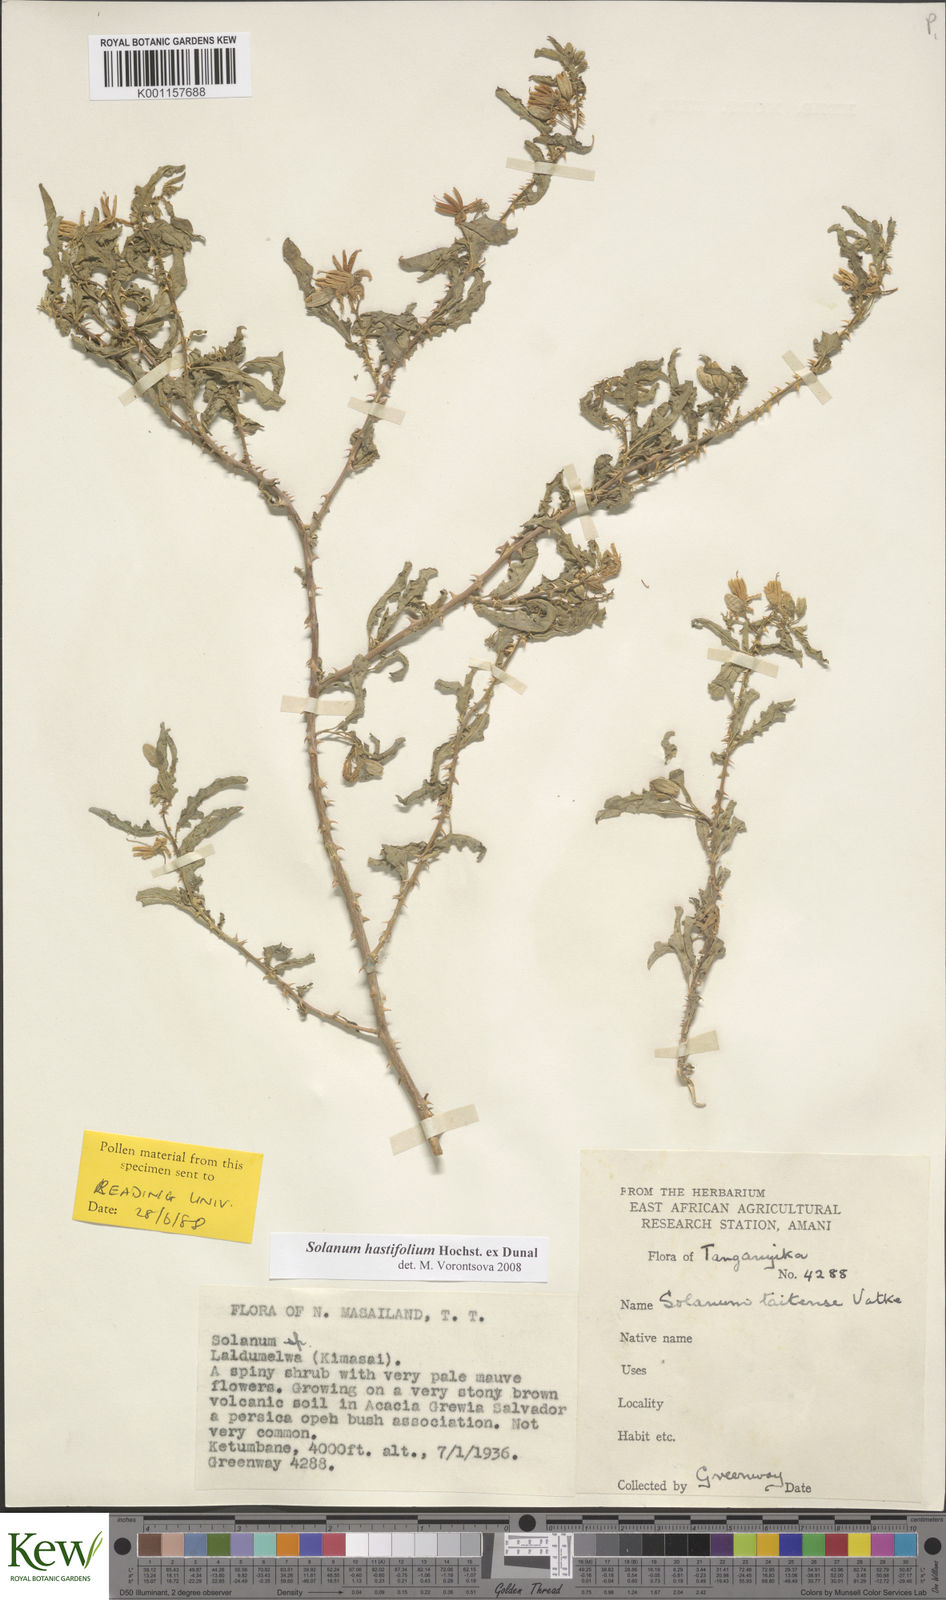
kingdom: Plantae
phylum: Tracheophyta
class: Magnoliopsida
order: Solanales
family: Solanaceae
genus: Solanum
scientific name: Solanum hastifolium
